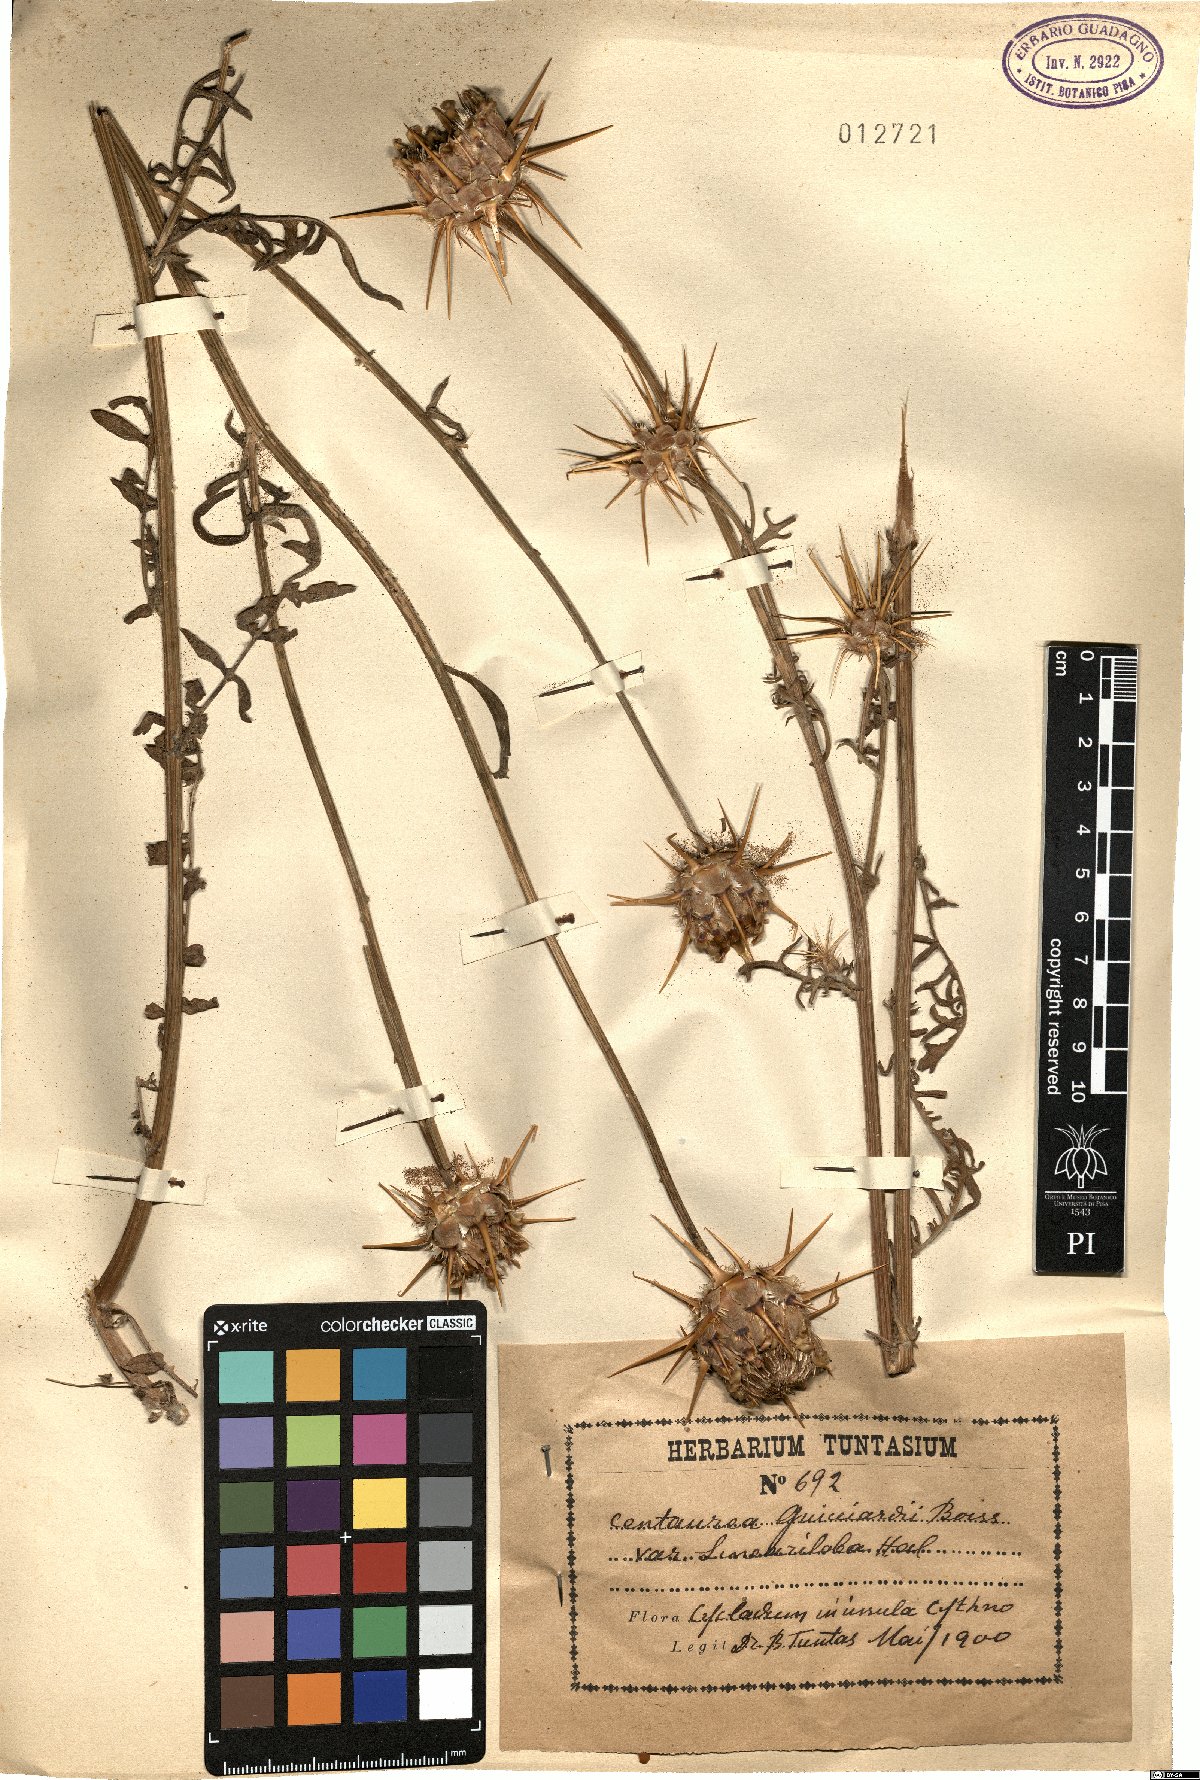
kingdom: Plantae
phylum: Tracheophyta
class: Magnoliopsida
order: Asterales
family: Asteraceae
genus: Centaurea
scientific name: Centaurea laconica
